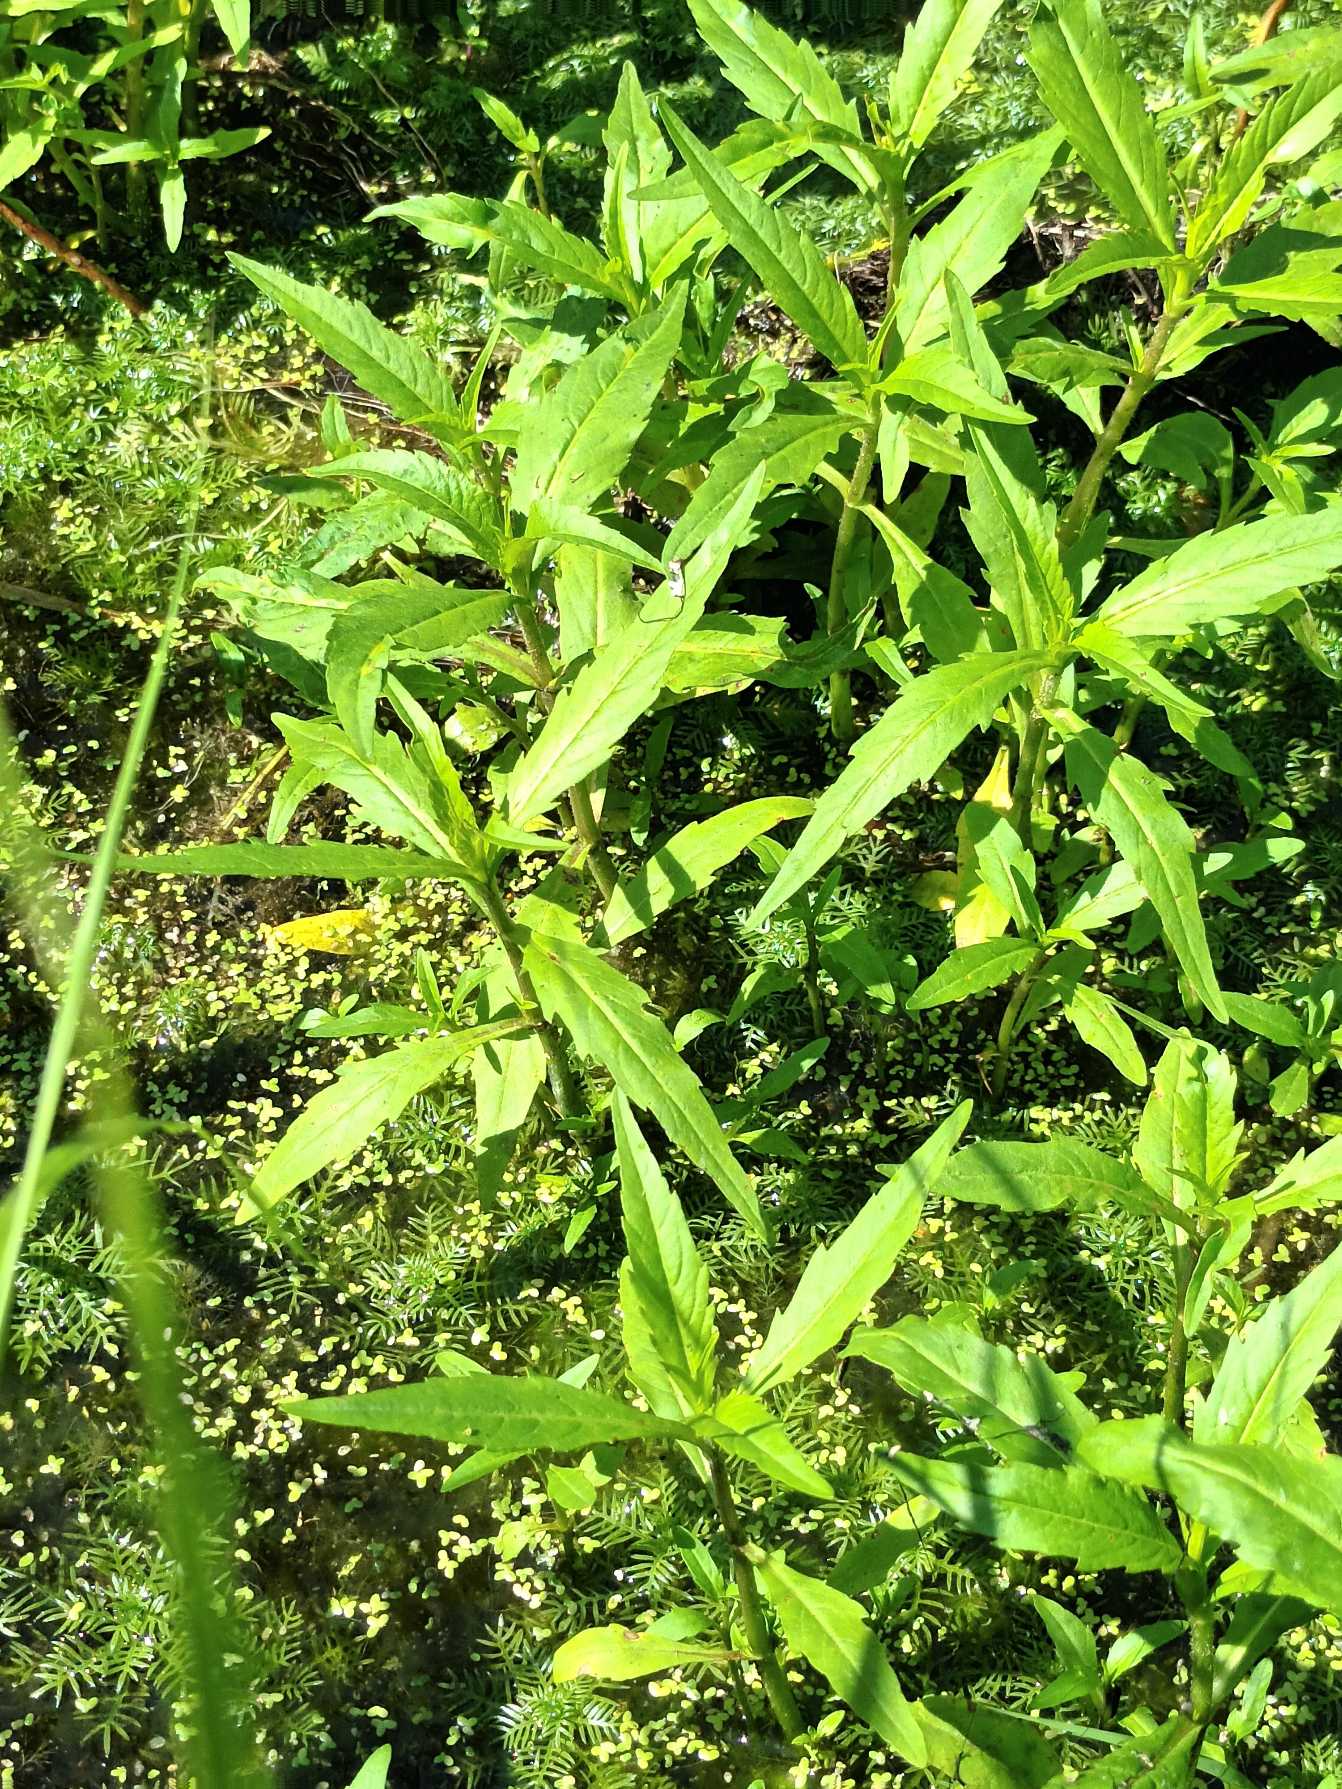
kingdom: Plantae
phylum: Tracheophyta
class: Magnoliopsida
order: Asterales
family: Asteraceae
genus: Bidens
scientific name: Bidens cernua
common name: Nikkende brøndsel
